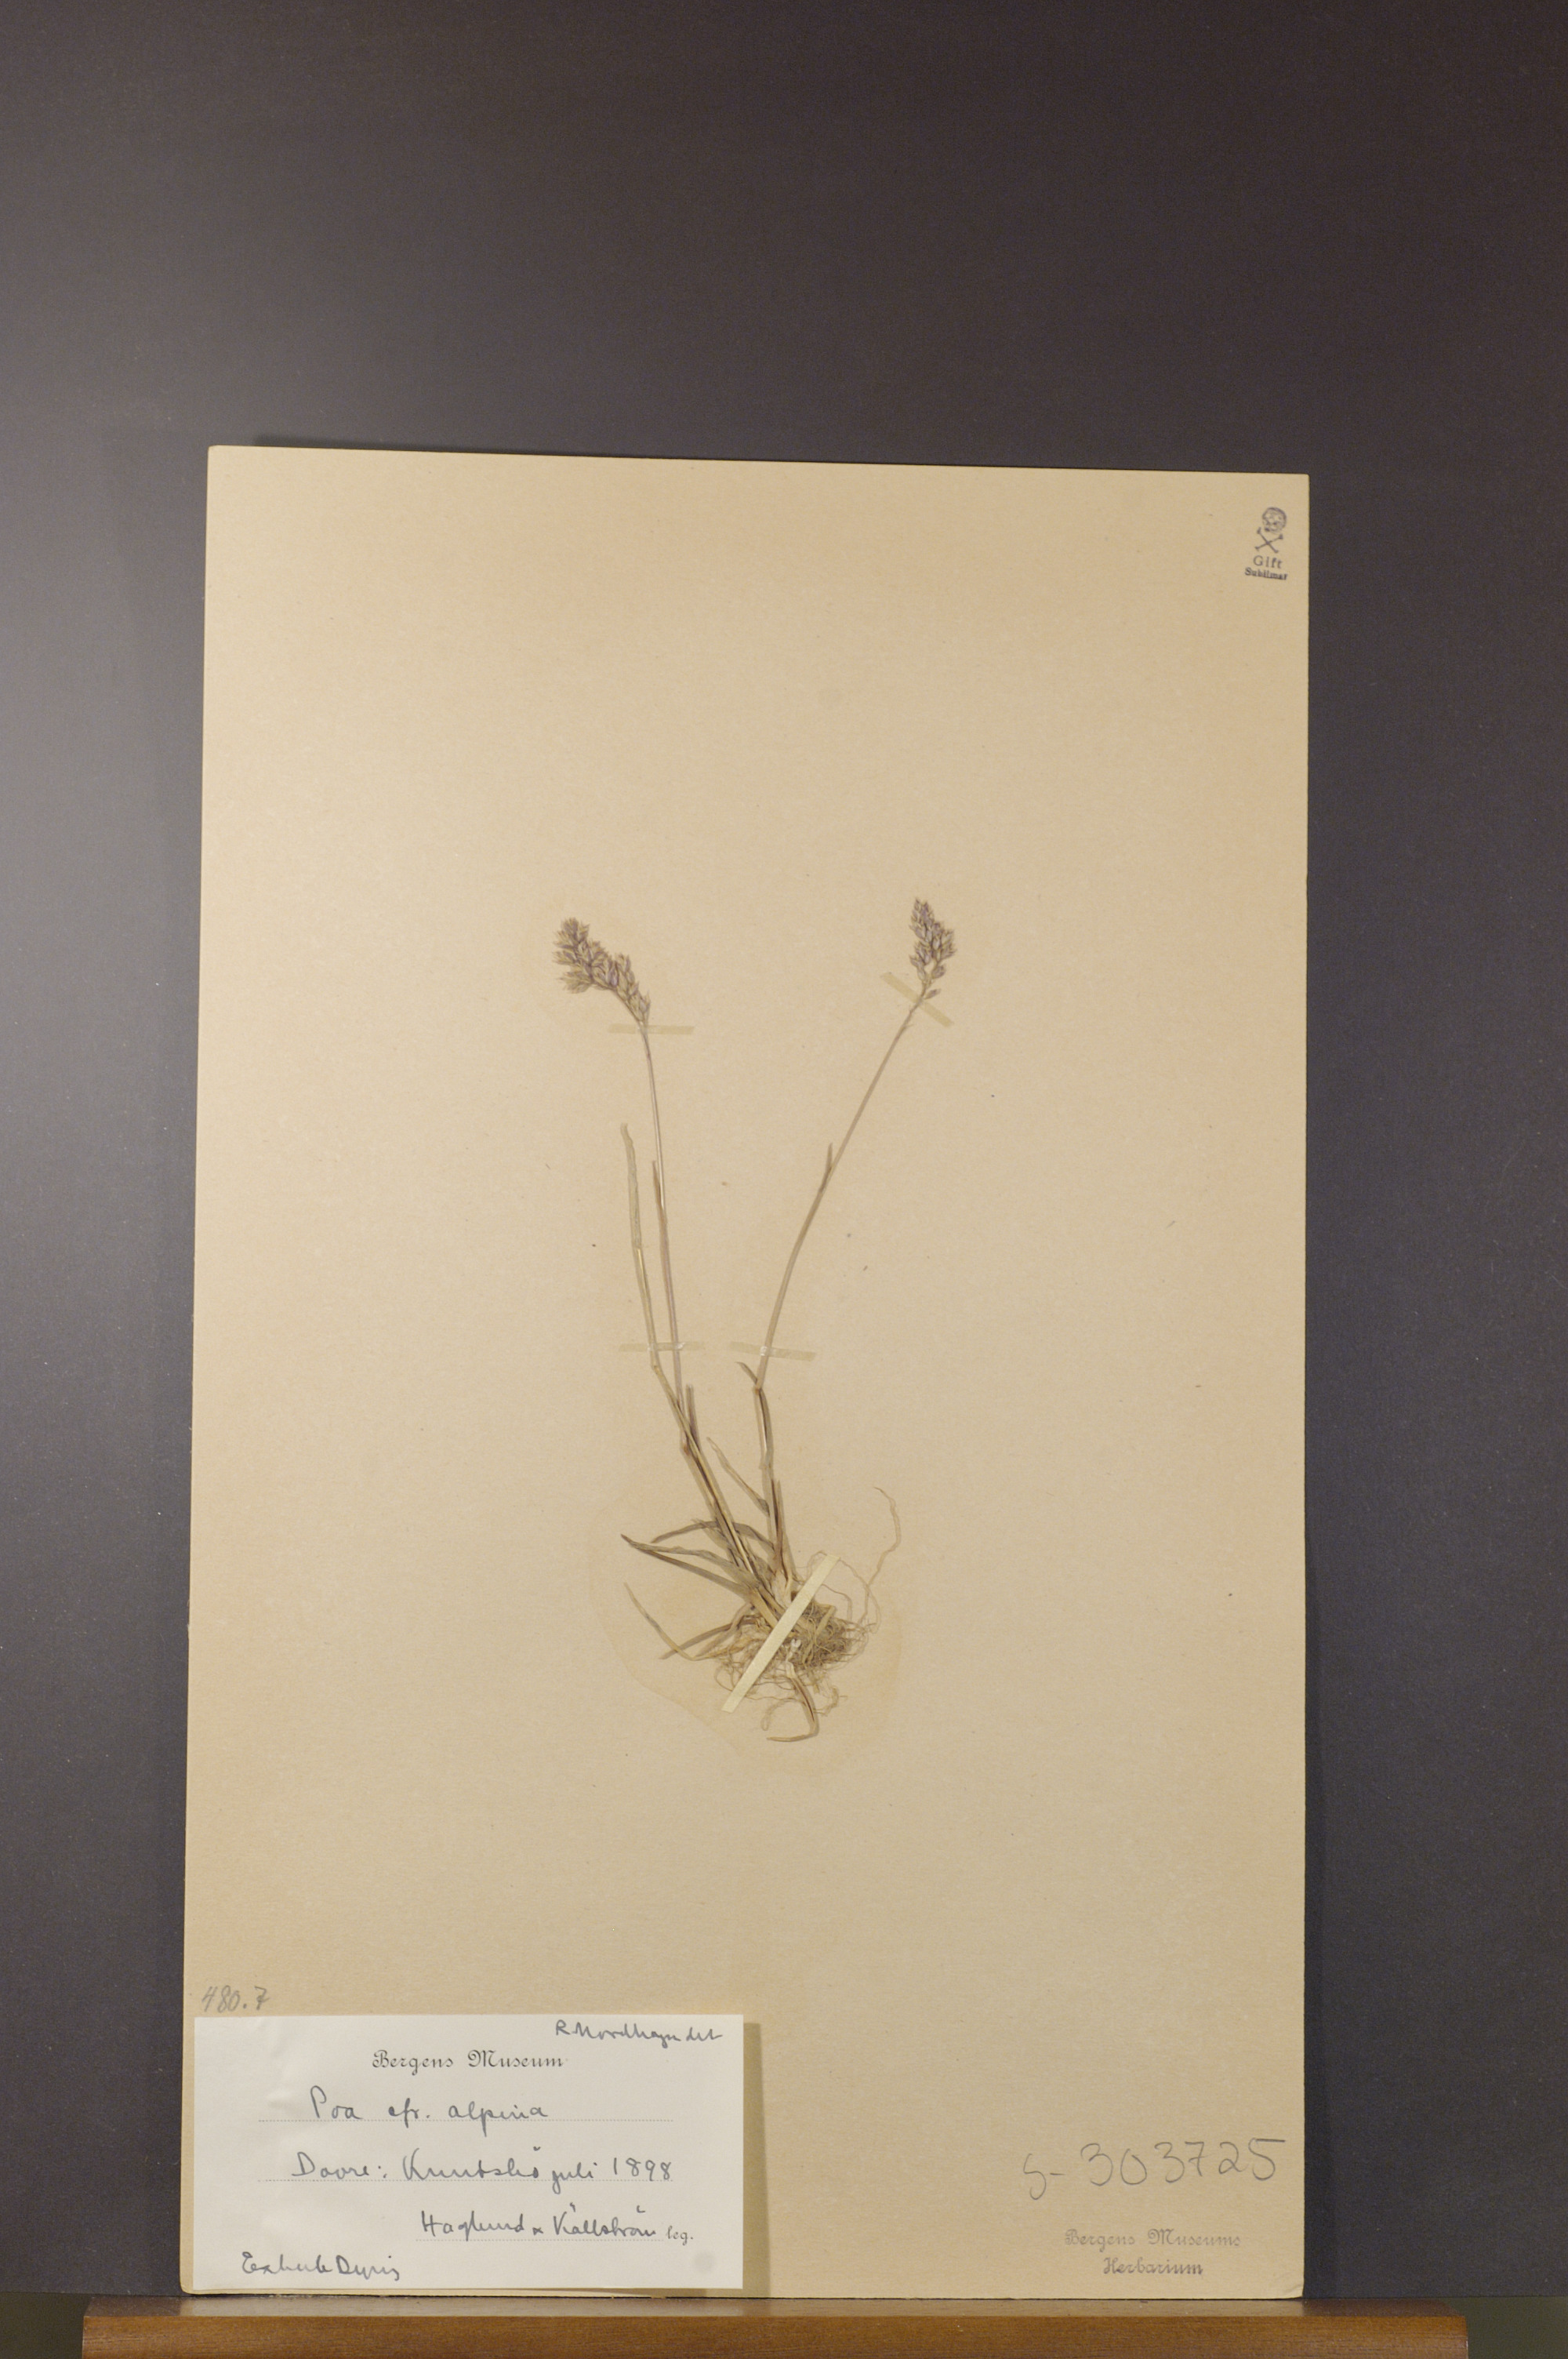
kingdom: Plantae
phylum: Tracheophyta
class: Liliopsida
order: Poales
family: Poaceae
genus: Poa
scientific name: Poa alpina
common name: Alpine bluegrass
